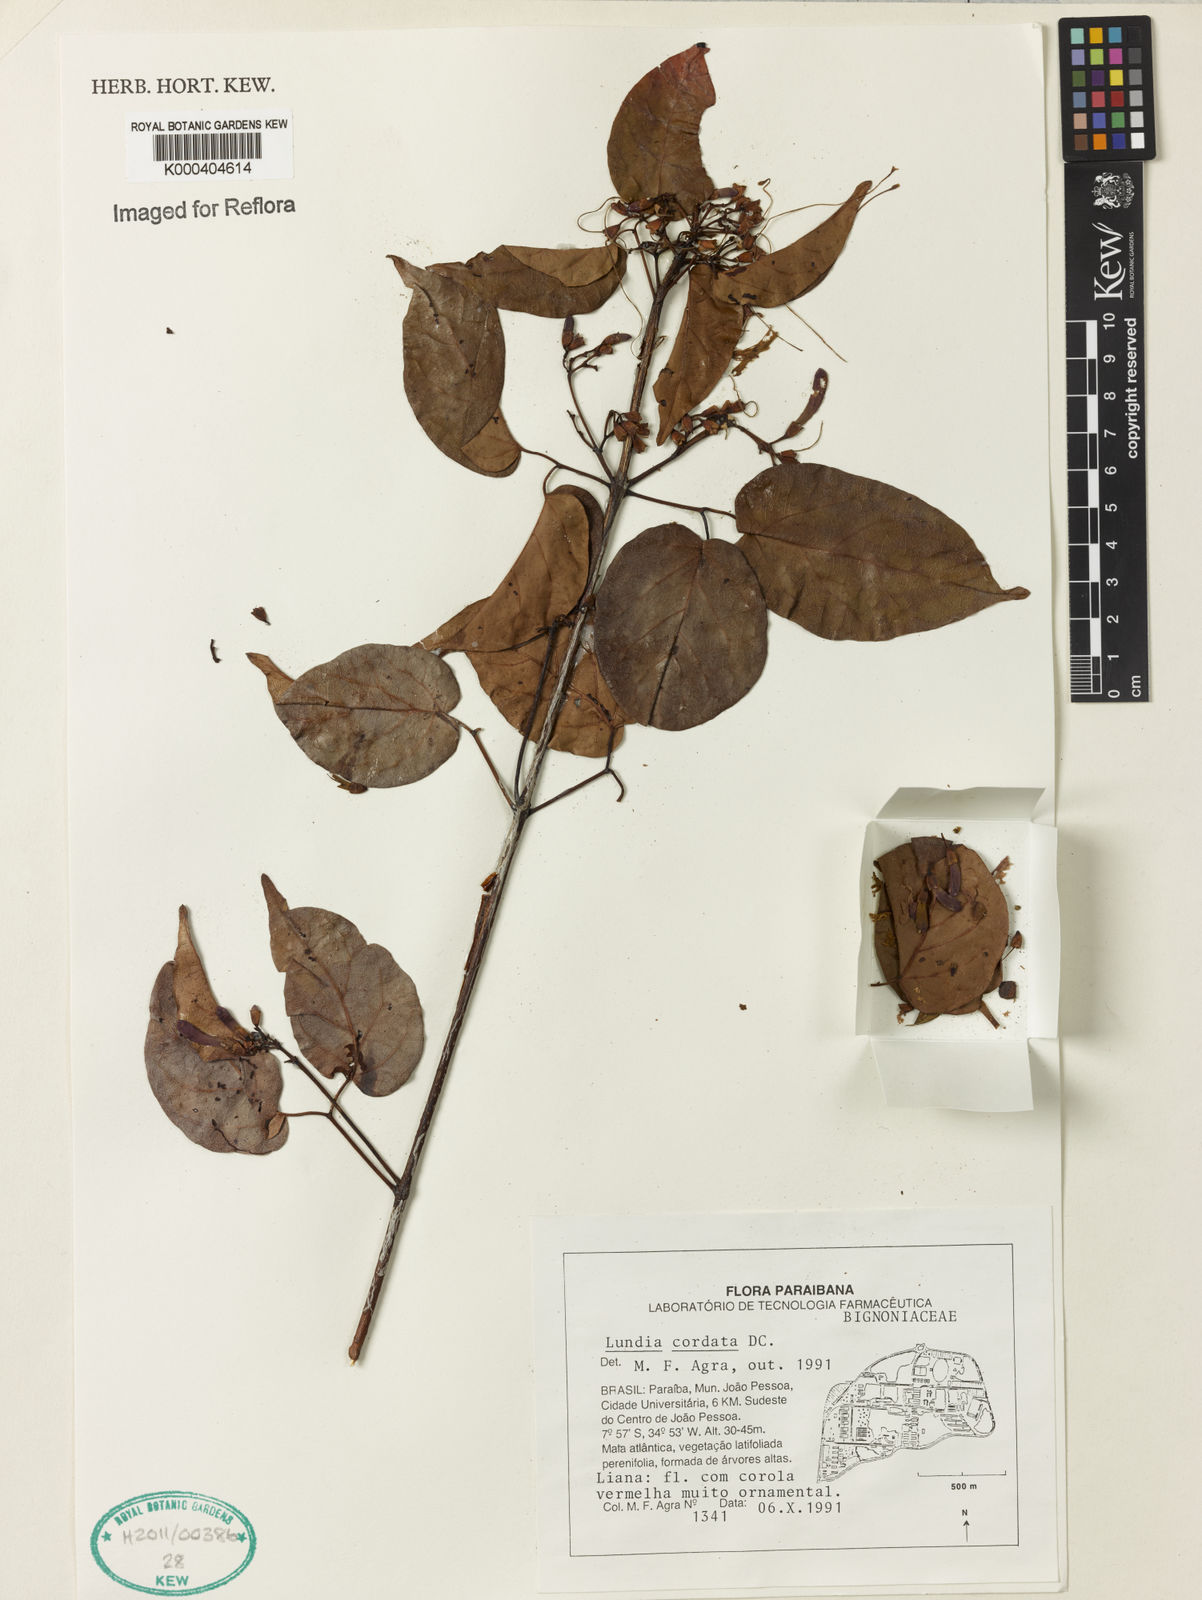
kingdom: Plantae
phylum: Tracheophyta
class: Magnoliopsida
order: Lamiales
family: Bignoniaceae
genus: Lundia
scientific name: Lundia corymbifera
